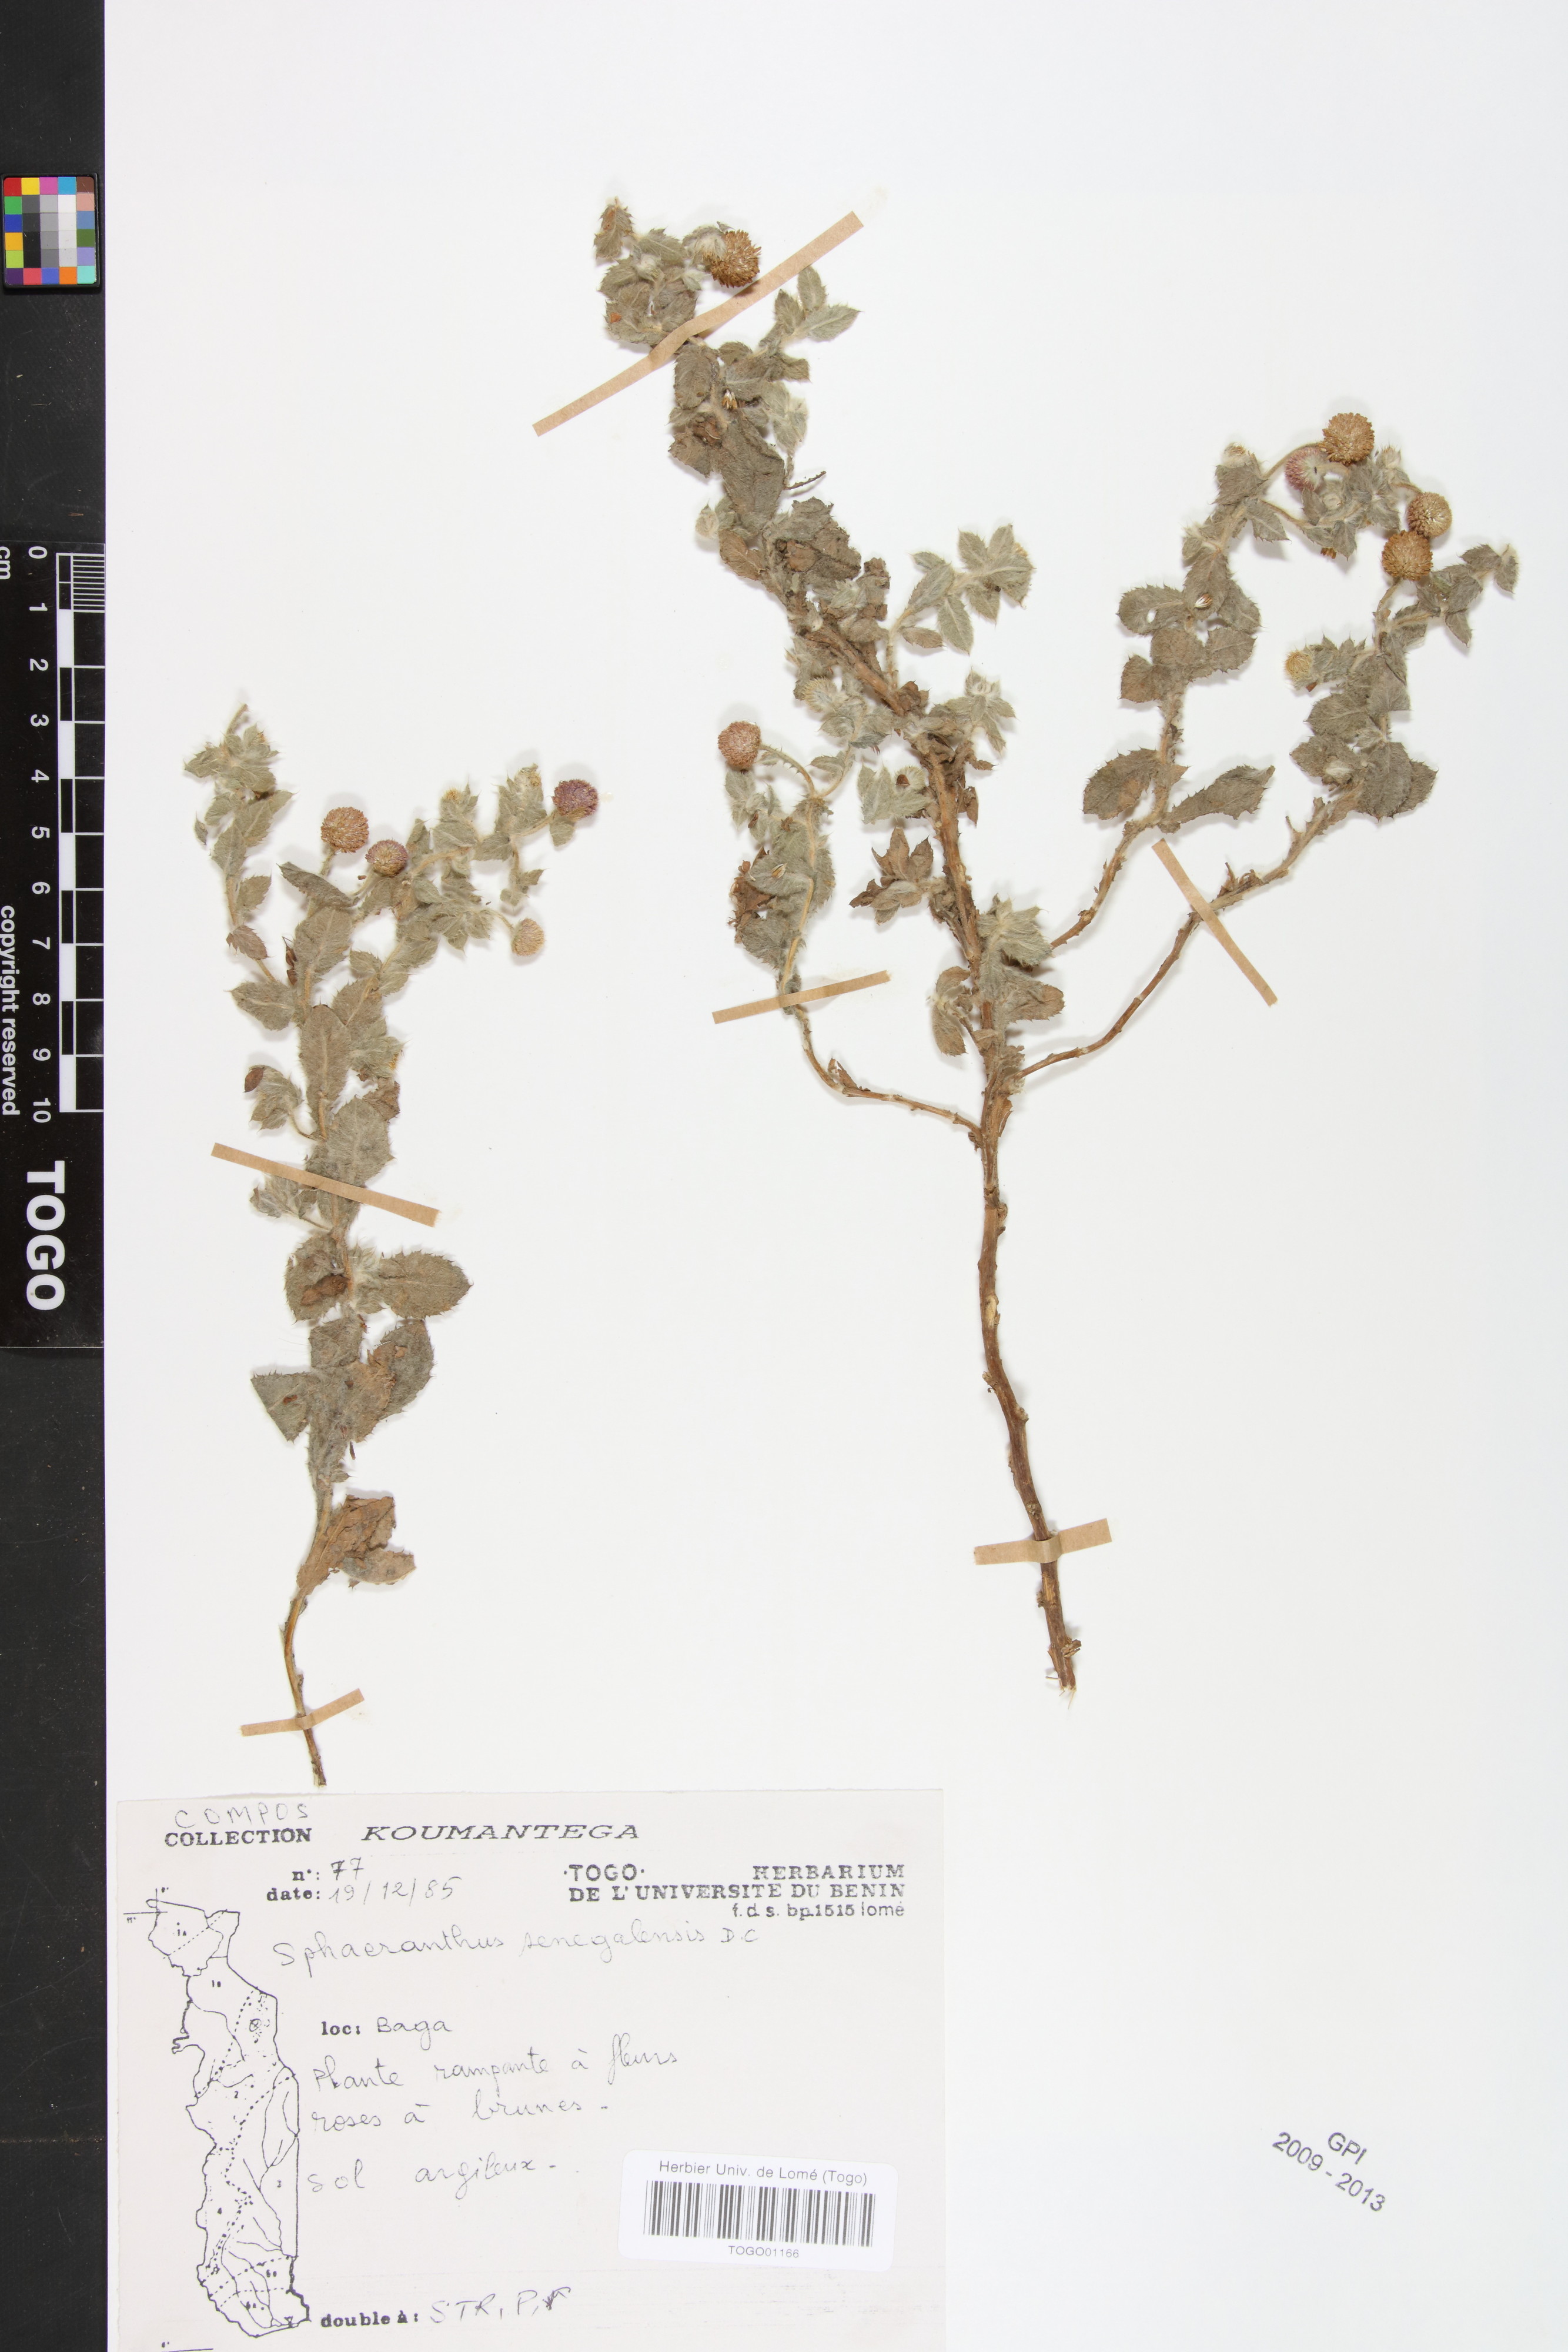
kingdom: Plantae
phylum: Tracheophyta
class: Magnoliopsida
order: Asterales
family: Asteraceae
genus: Sphaeranthus
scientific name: Sphaeranthus senegalensis
